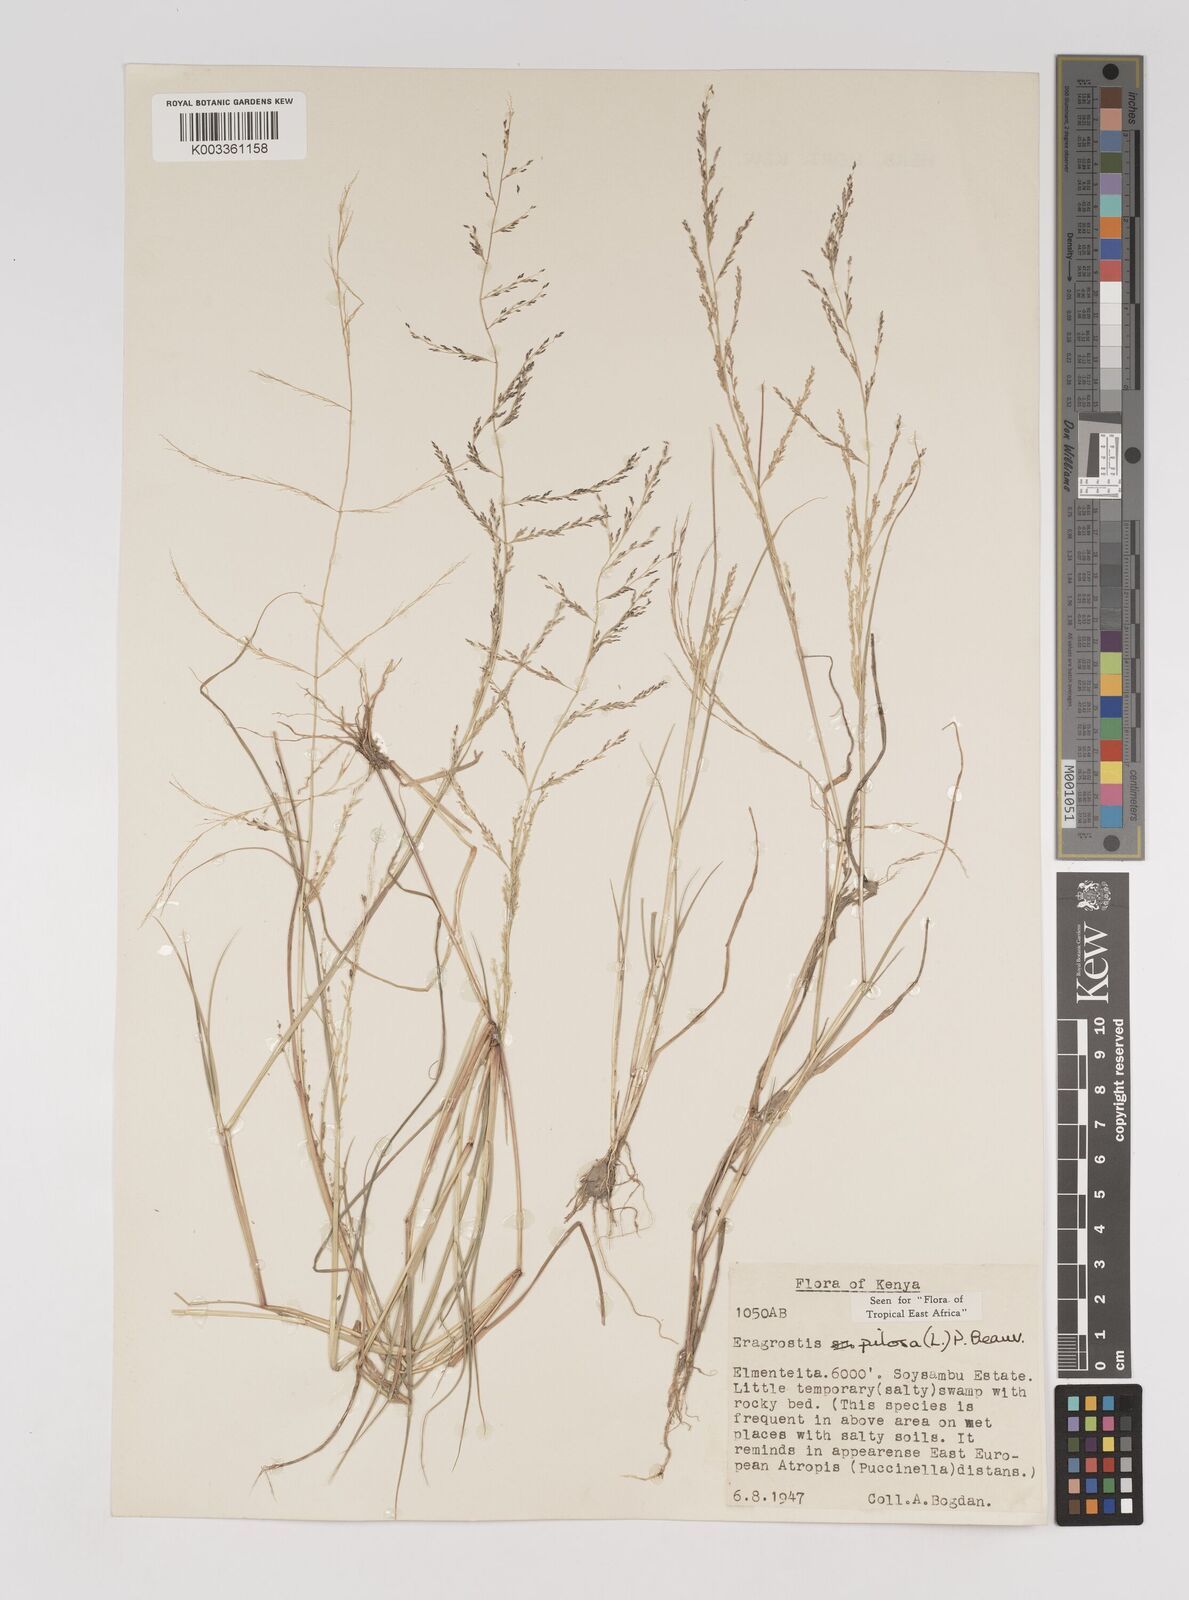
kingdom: Plantae
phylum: Tracheophyta
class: Liliopsida
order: Poales
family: Poaceae
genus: Eragrostis
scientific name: Eragrostis pilosa
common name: Indian lovegrass
